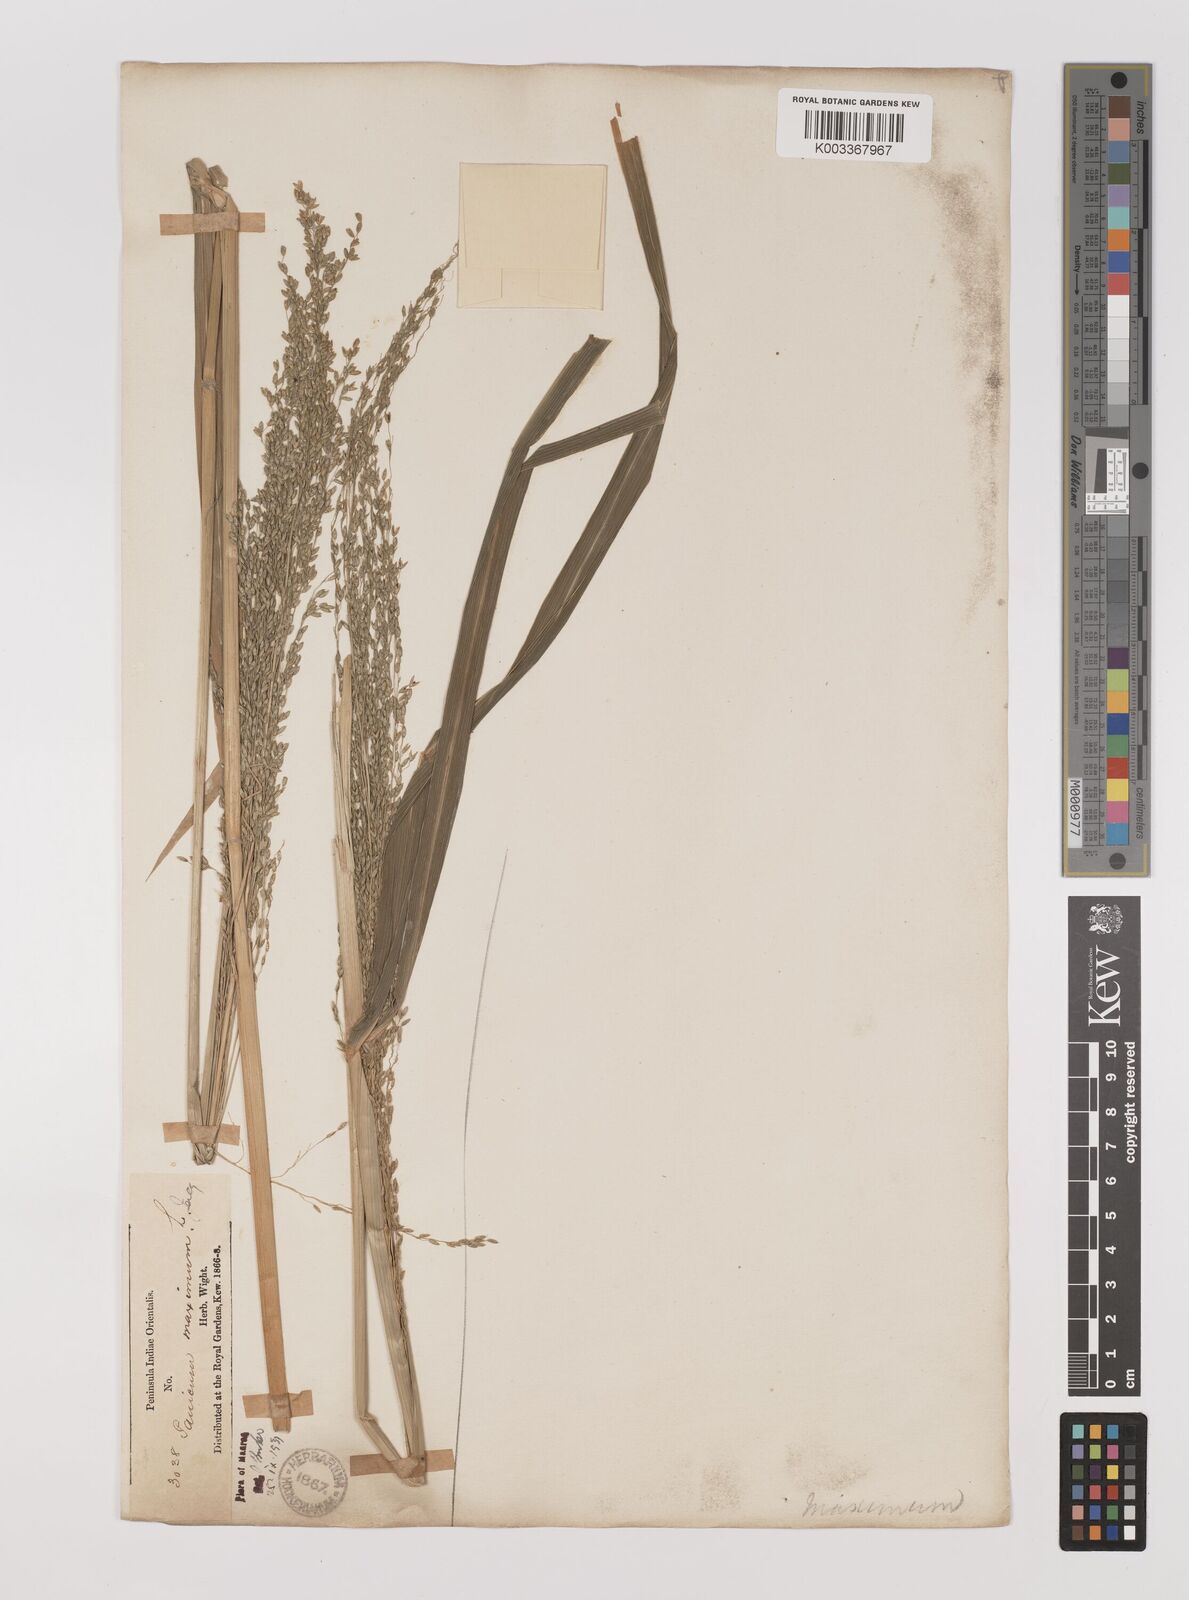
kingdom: Plantae
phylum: Tracheophyta
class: Liliopsida
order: Poales
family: Poaceae
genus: Megathyrsus
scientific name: Megathyrsus maximus
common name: Guineagrass
